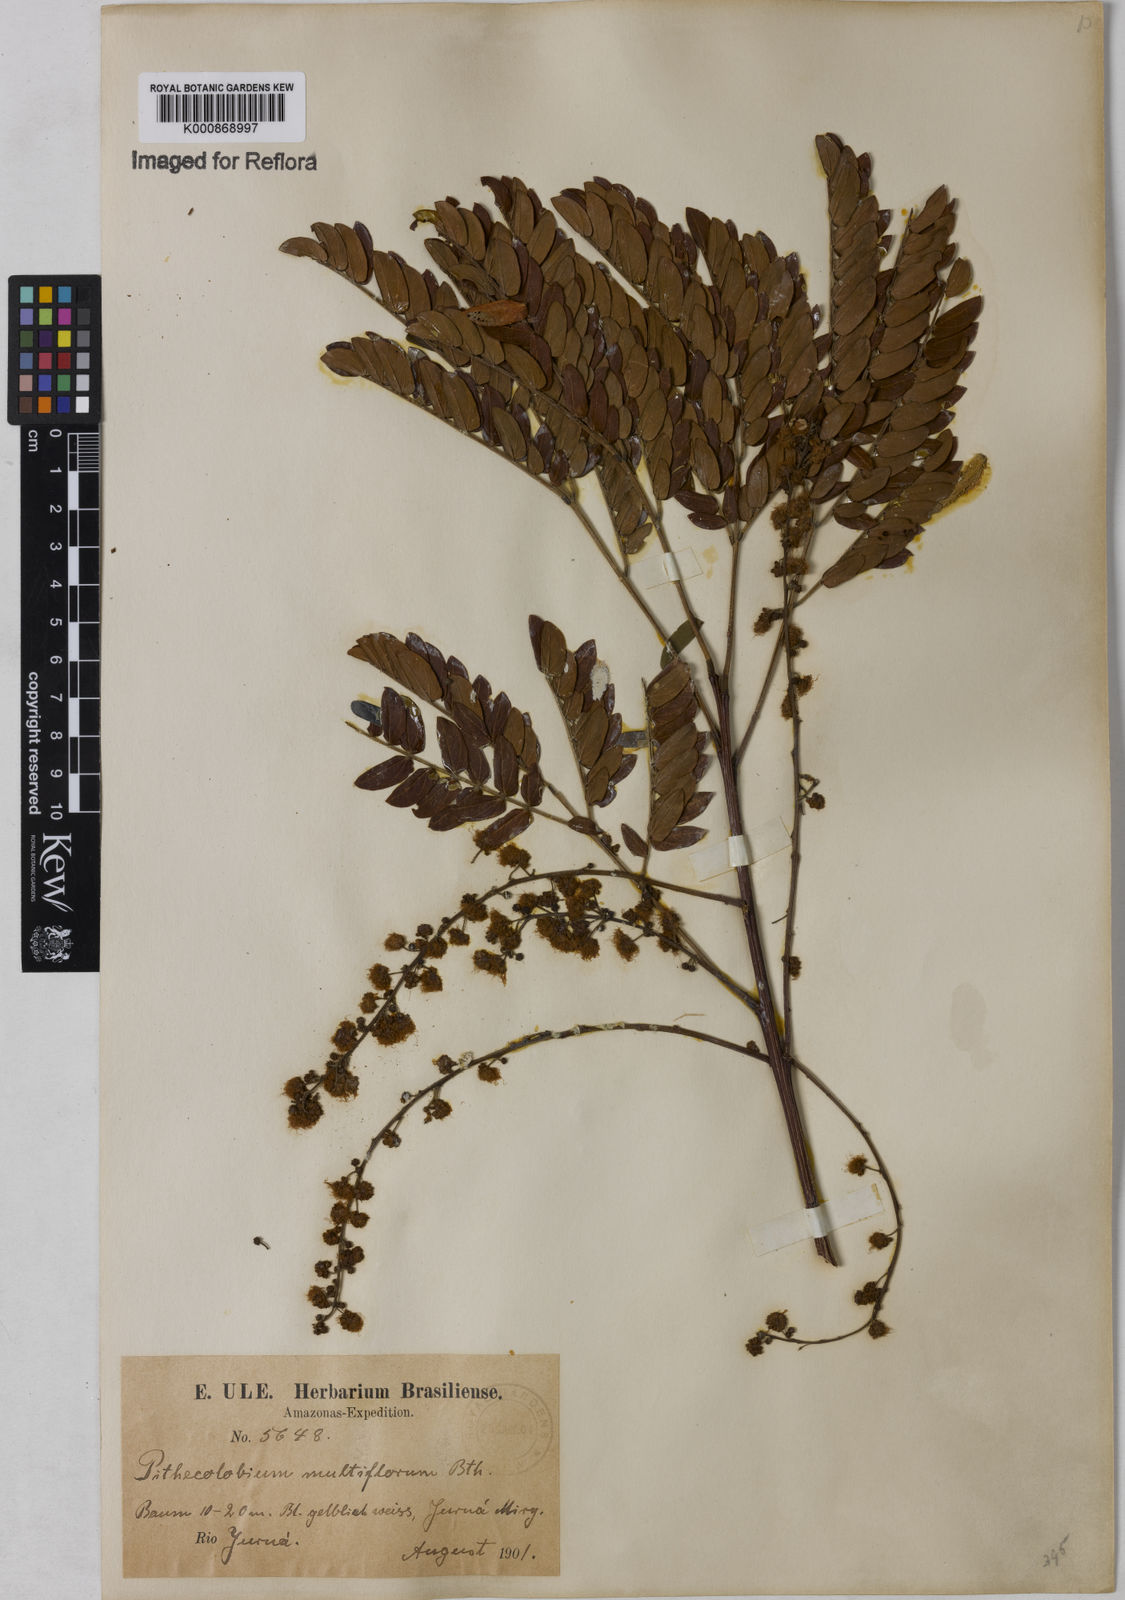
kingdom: Plantae
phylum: Tracheophyta
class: Magnoliopsida
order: Fabales
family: Fabaceae
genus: Albizia
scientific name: Albizia multiflora
